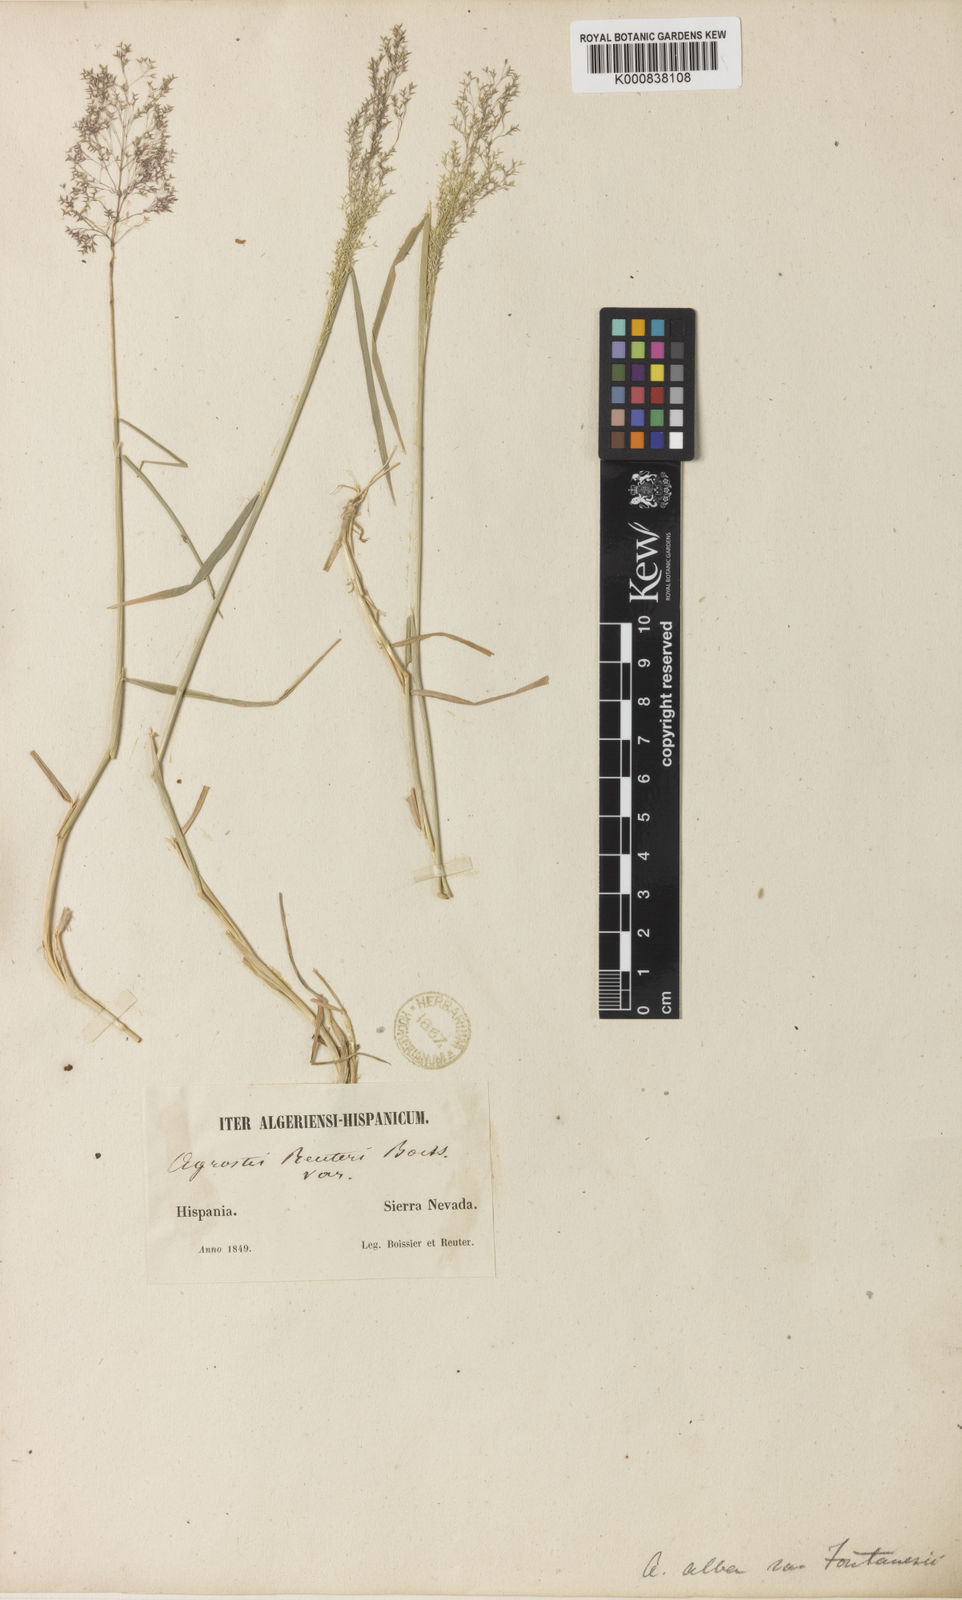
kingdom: Plantae
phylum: Tracheophyta
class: Liliopsida
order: Poales
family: Poaceae
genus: Agrostis
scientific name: Agrostis reuteri
